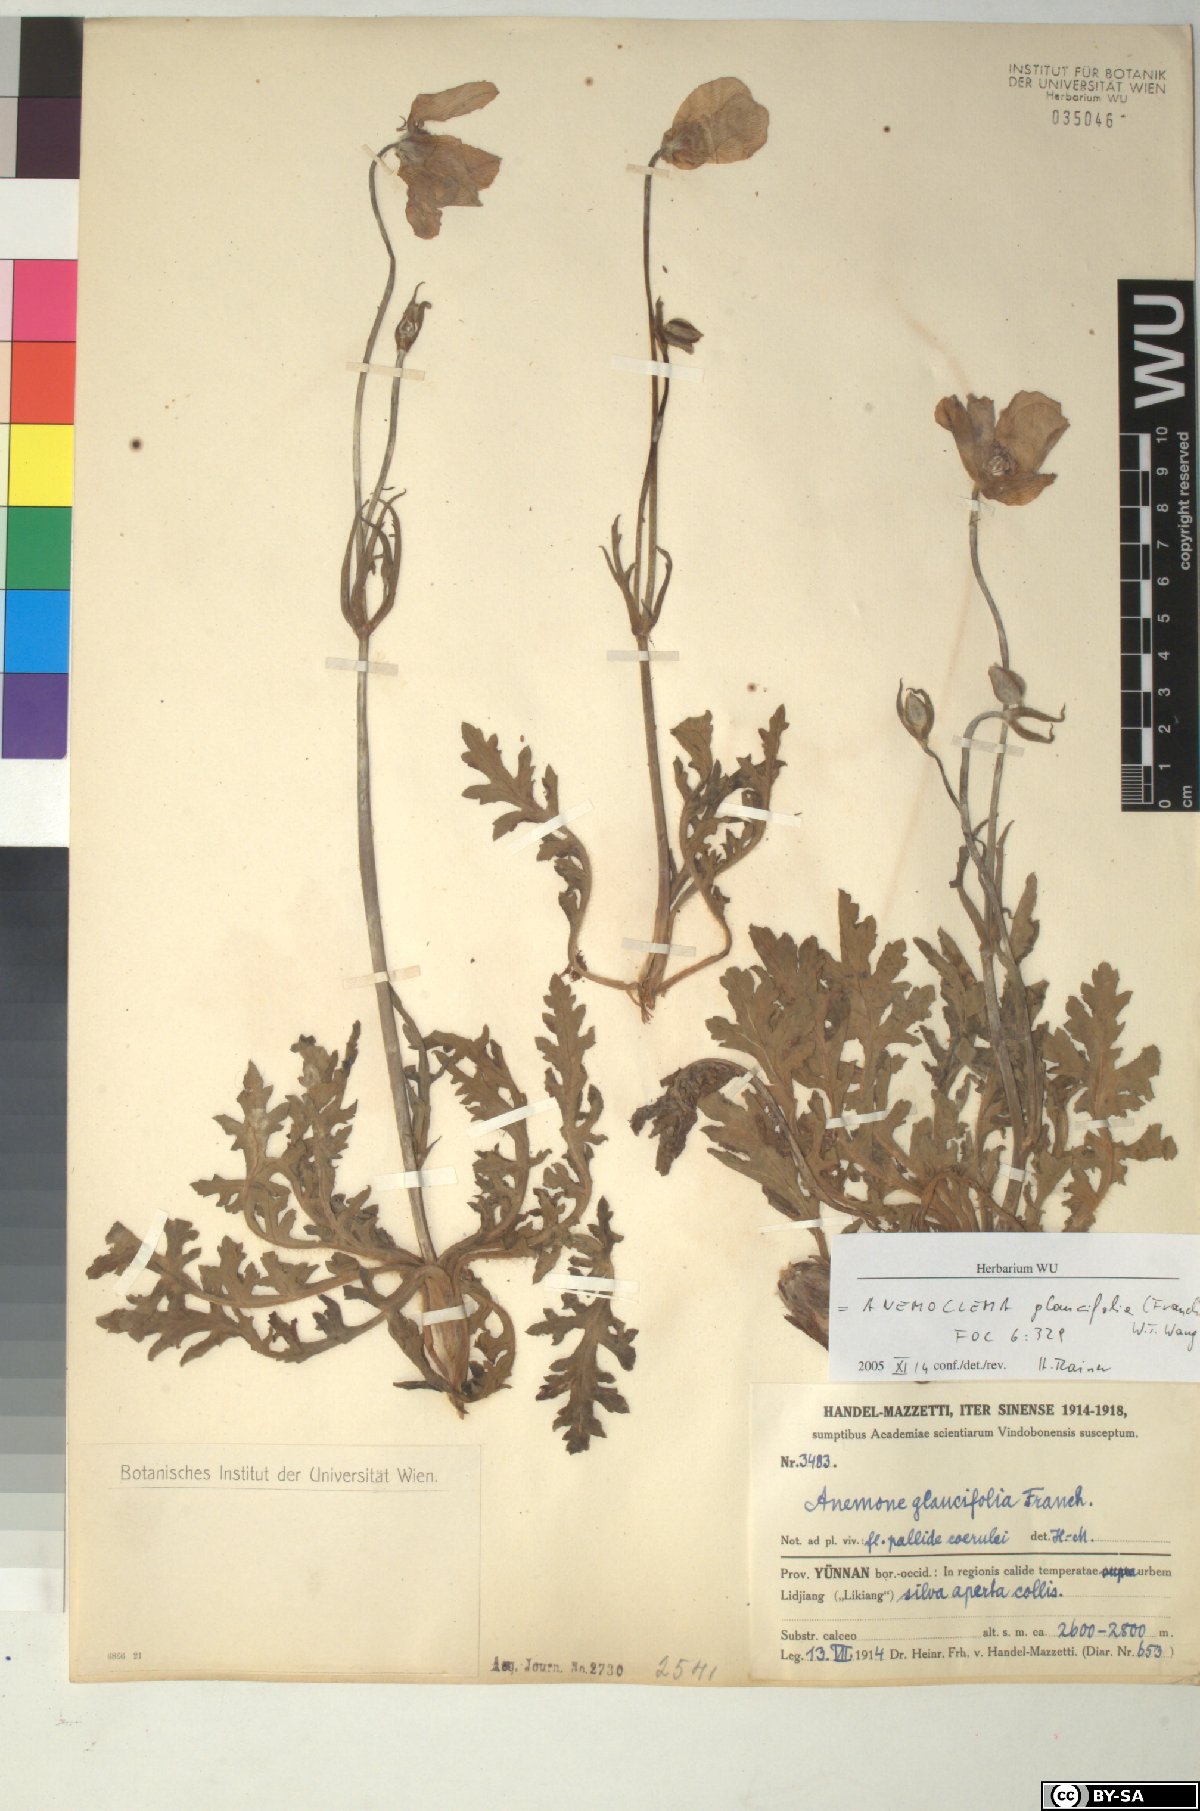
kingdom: Plantae
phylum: Tracheophyta
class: Magnoliopsida
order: Ranunculales
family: Ranunculaceae
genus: Anemone
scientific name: Anemone glaucifolia
